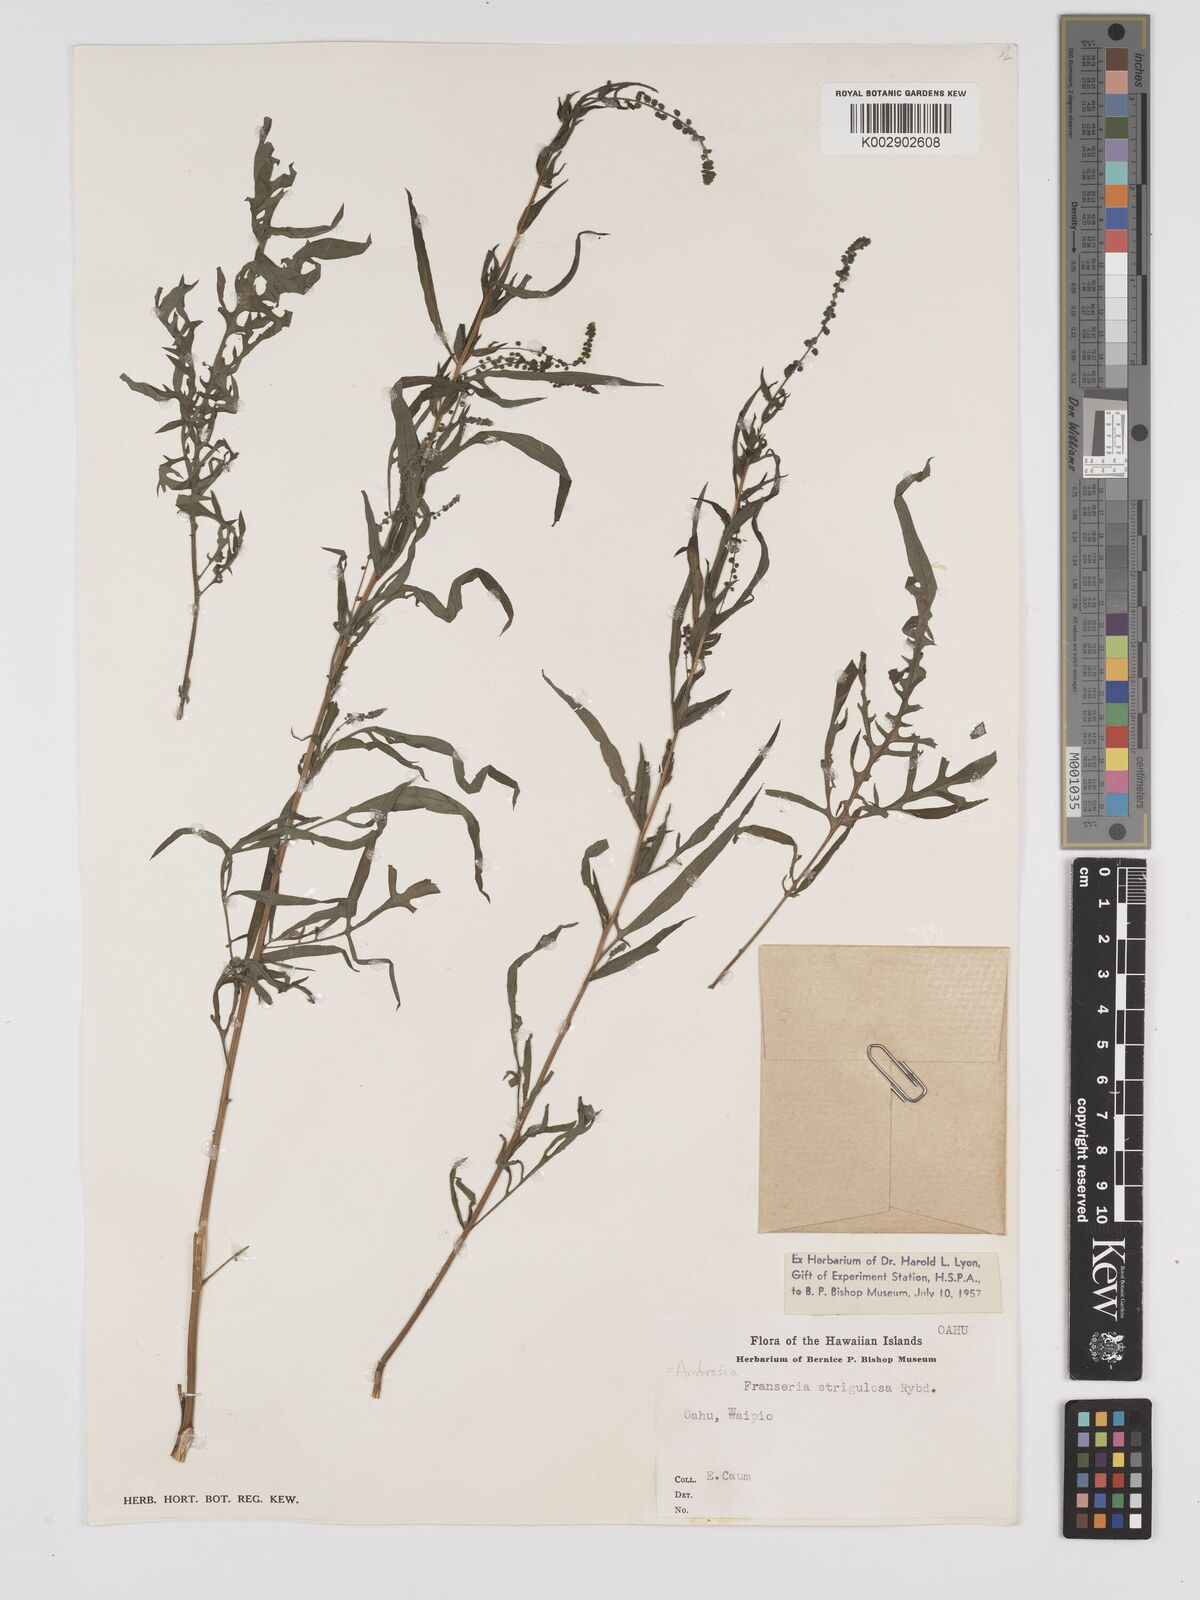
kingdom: Plantae
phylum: Tracheophyta
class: Magnoliopsida
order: Asterales
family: Asteraceae
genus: Ambrosia
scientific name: Ambrosia
